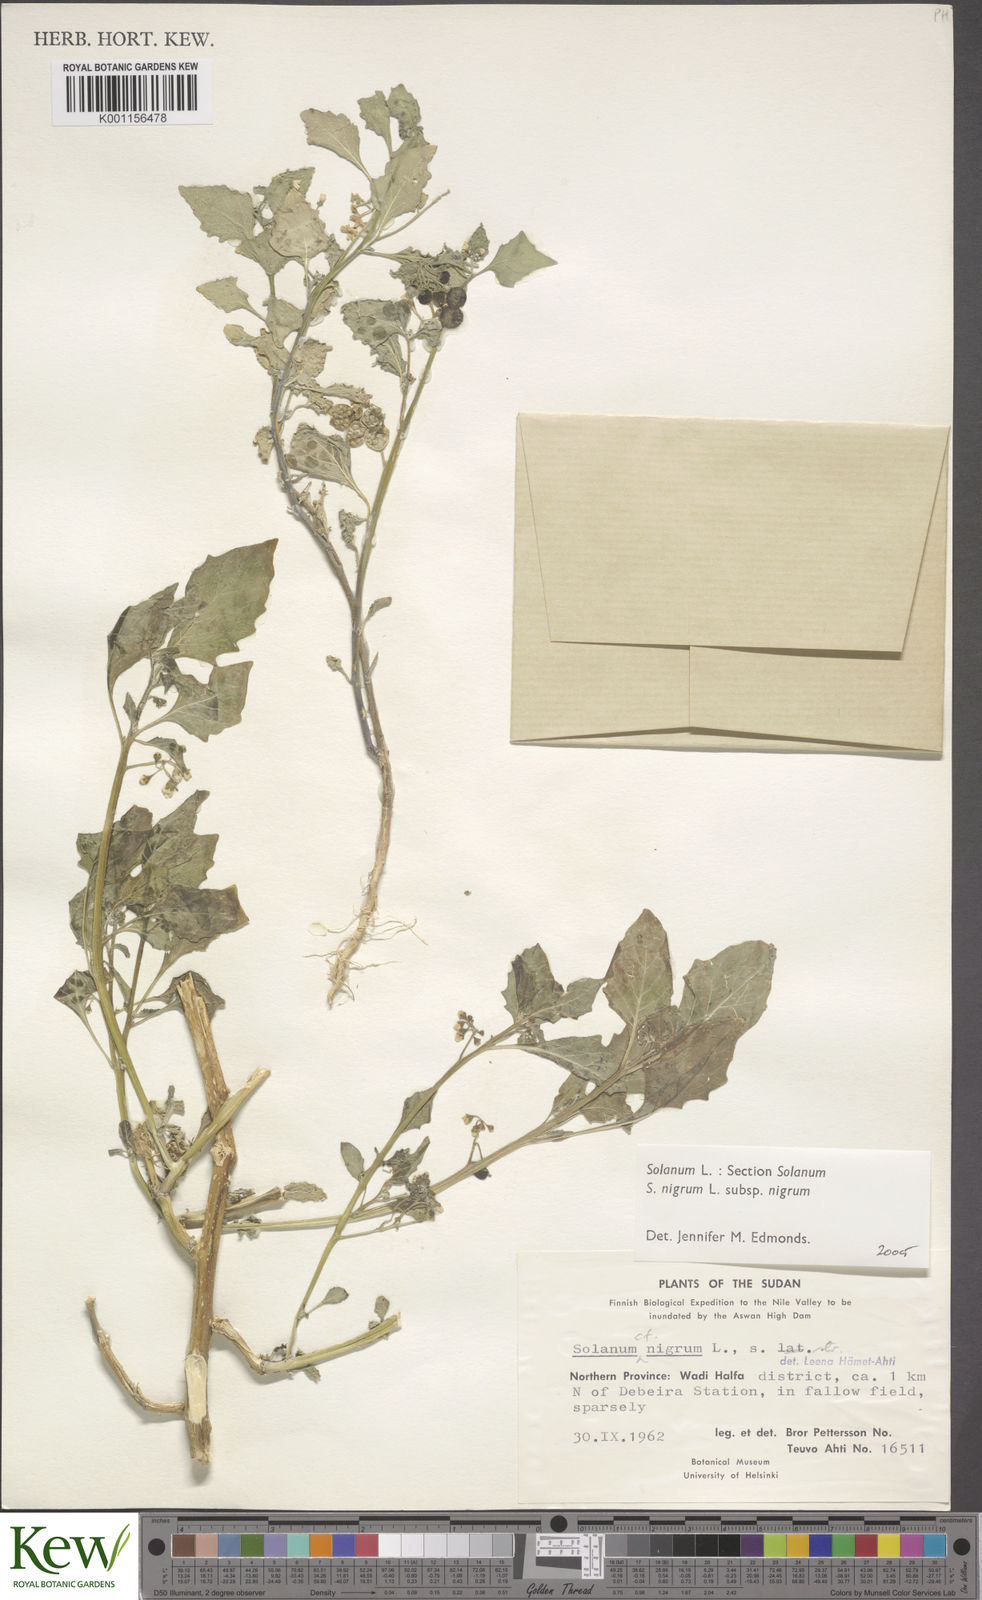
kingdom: Plantae
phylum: Tracheophyta
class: Magnoliopsida
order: Solanales
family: Solanaceae
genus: Solanum
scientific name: Solanum nigrum
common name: Black nightshade
